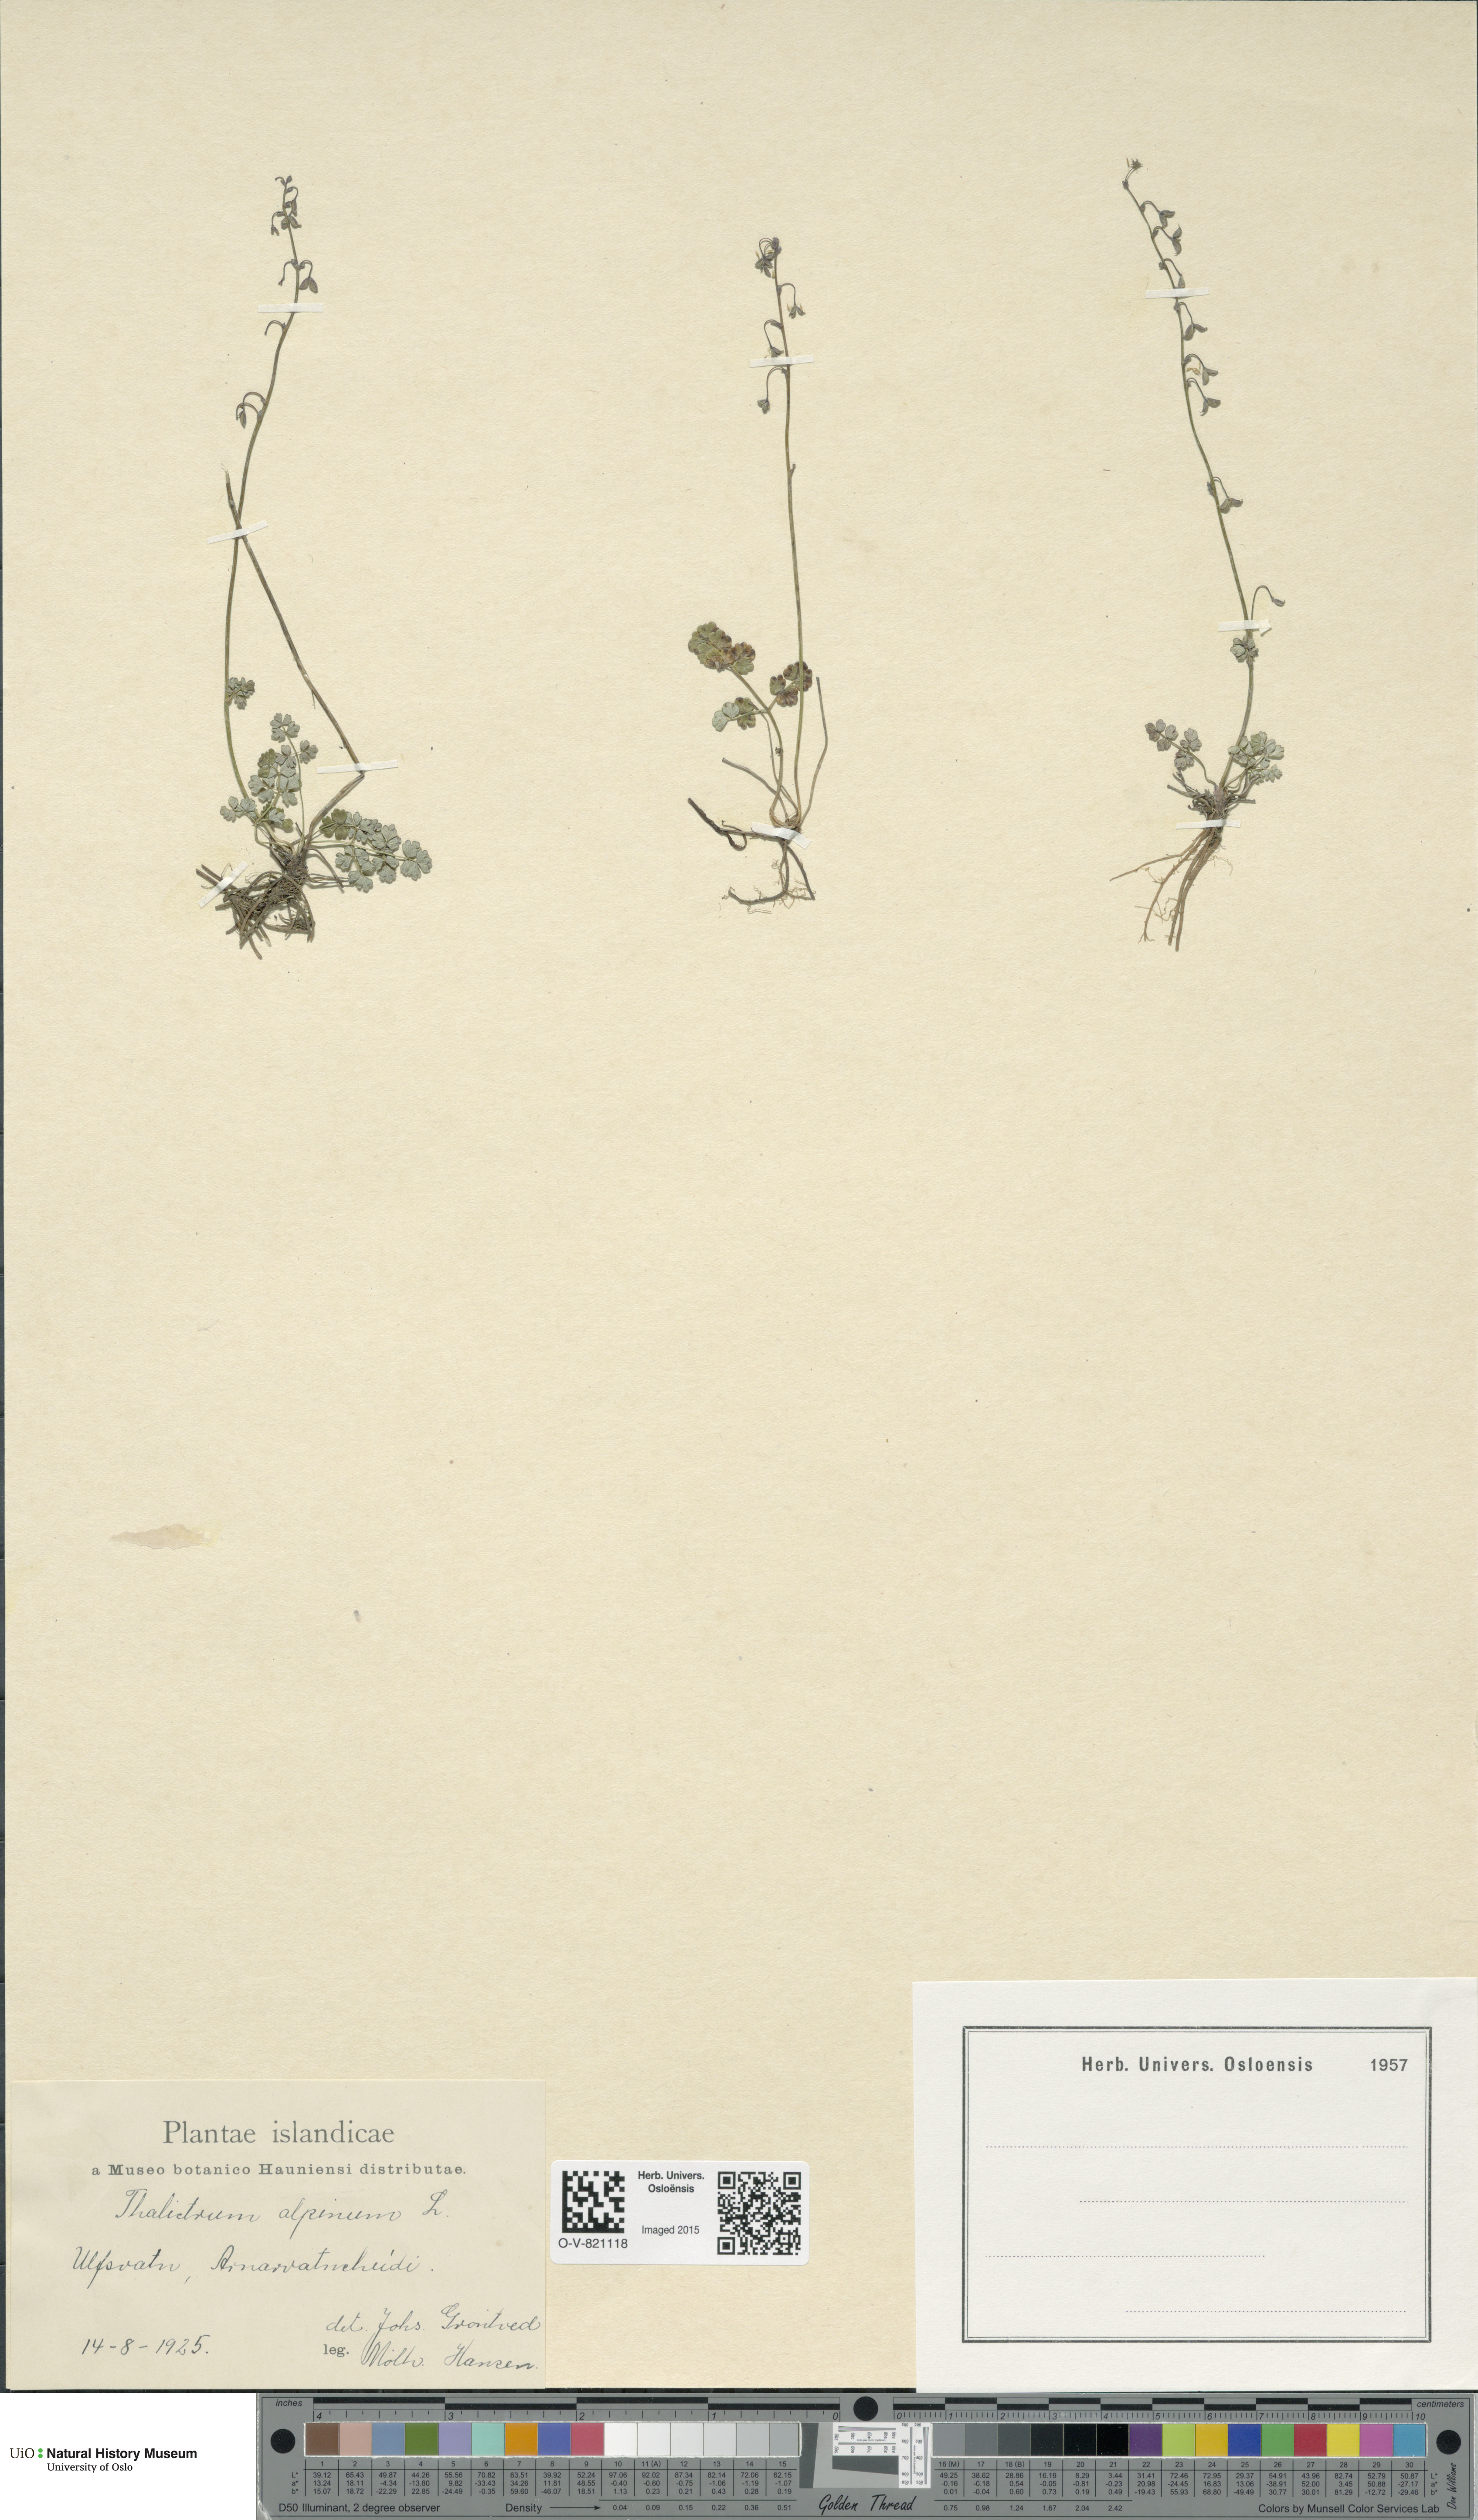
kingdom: Plantae
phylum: Tracheophyta
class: Magnoliopsida
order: Ranunculales
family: Ranunculaceae
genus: Thalictrum
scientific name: Thalictrum alpinum
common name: Alpine meadow-rue
